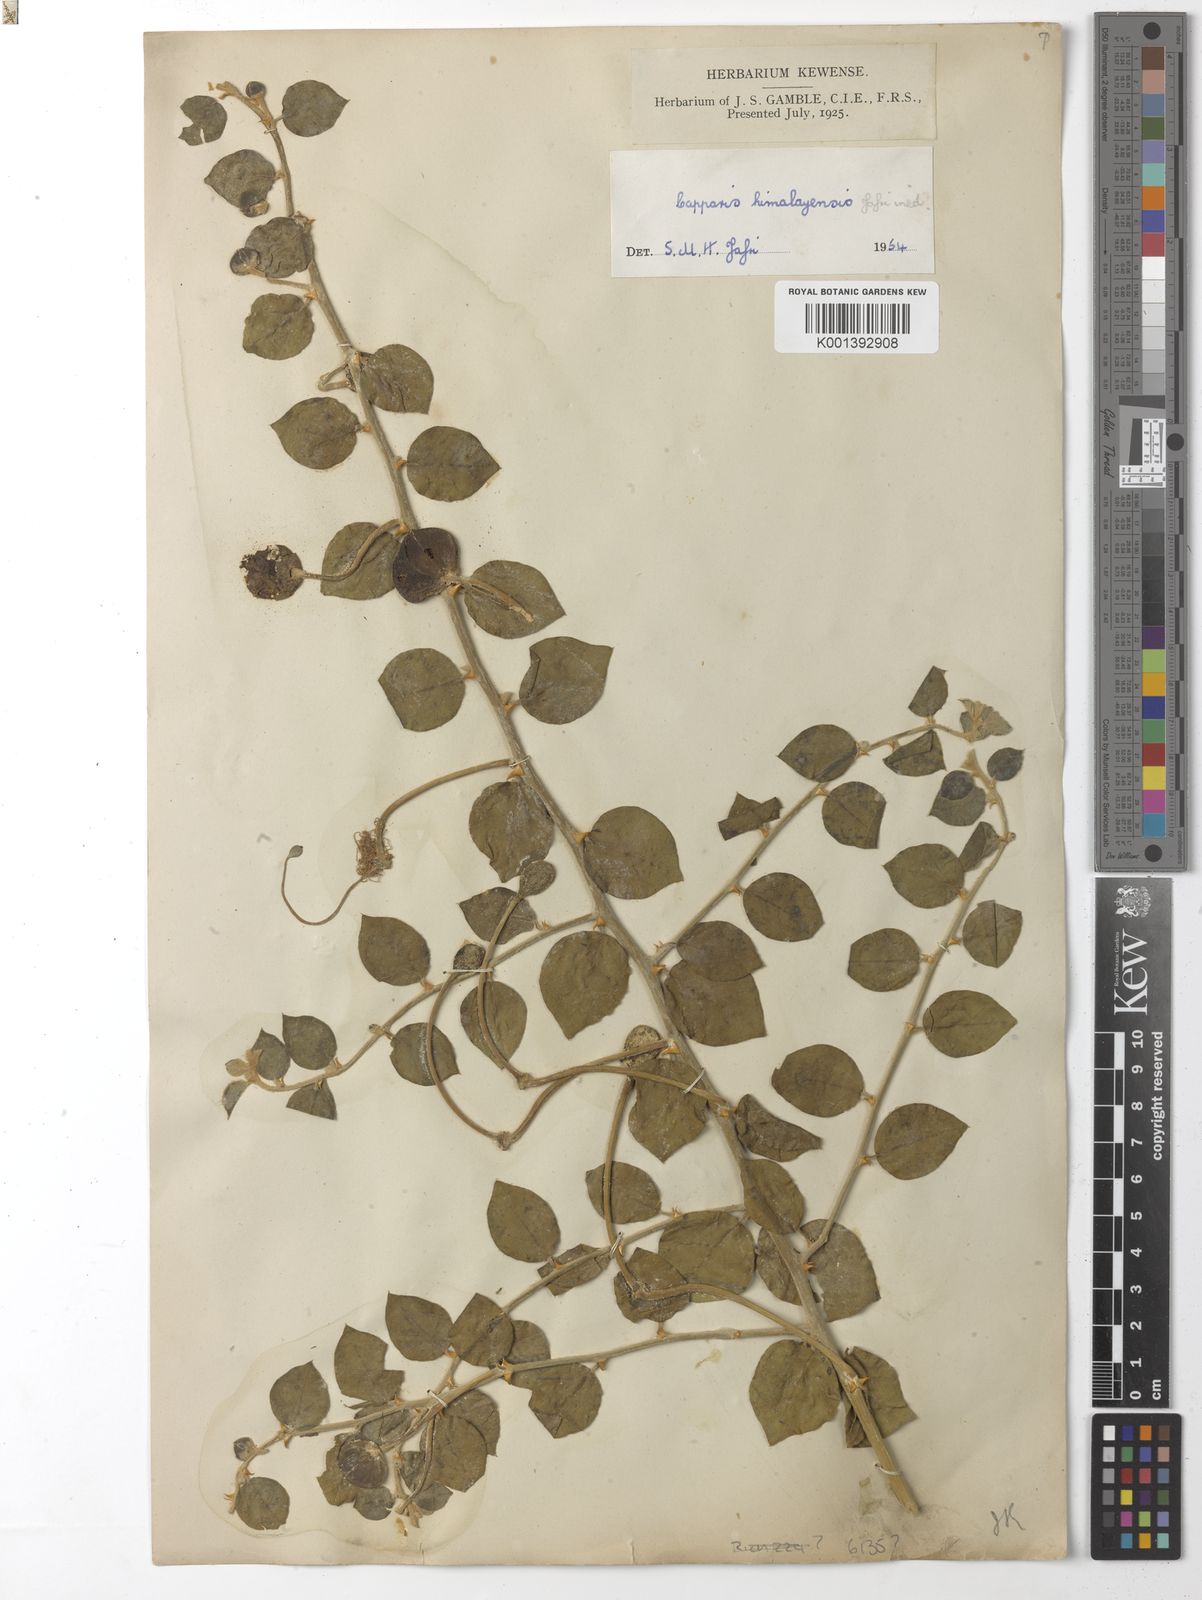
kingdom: Plantae
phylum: Tracheophyta
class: Magnoliopsida
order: Brassicales
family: Capparaceae
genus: Capparis
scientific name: Capparis spinosa
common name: Caper
